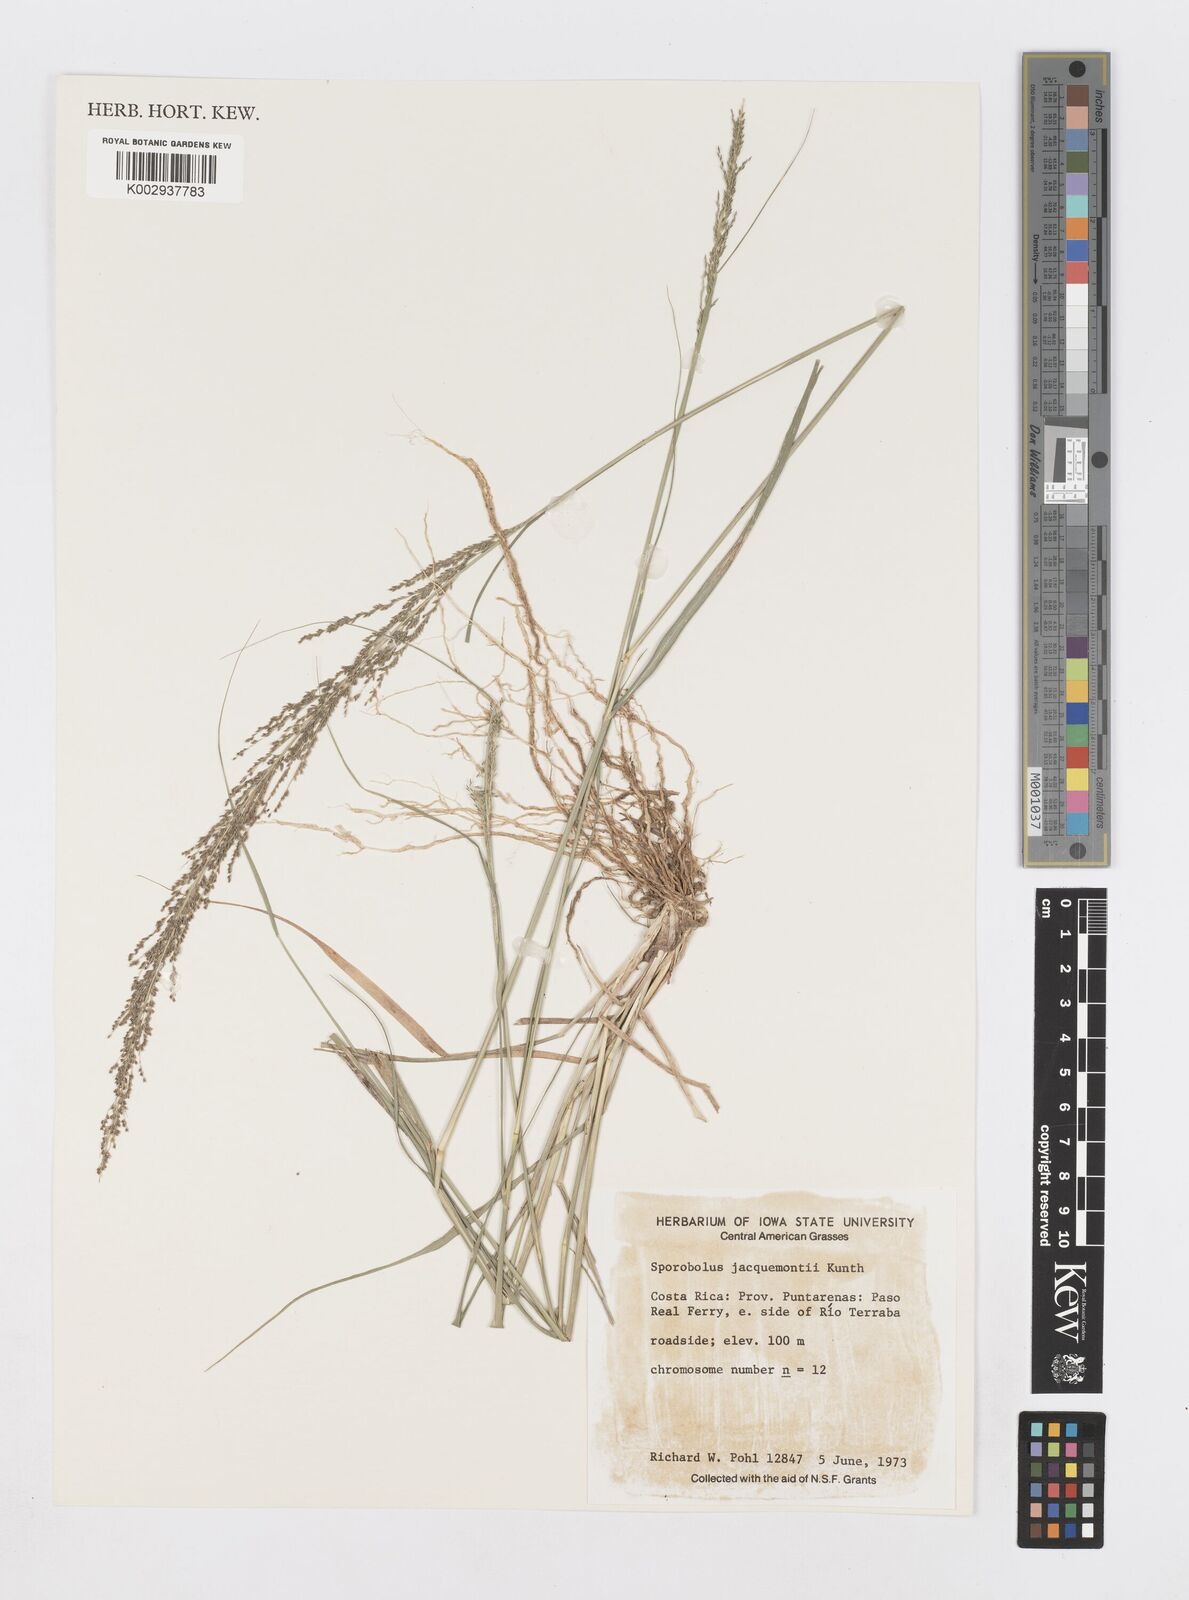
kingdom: Plantae
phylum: Tracheophyta
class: Liliopsida
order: Poales
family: Poaceae
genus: Sporobolus
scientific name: Sporobolus pyramidalis
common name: West indian dropseed
